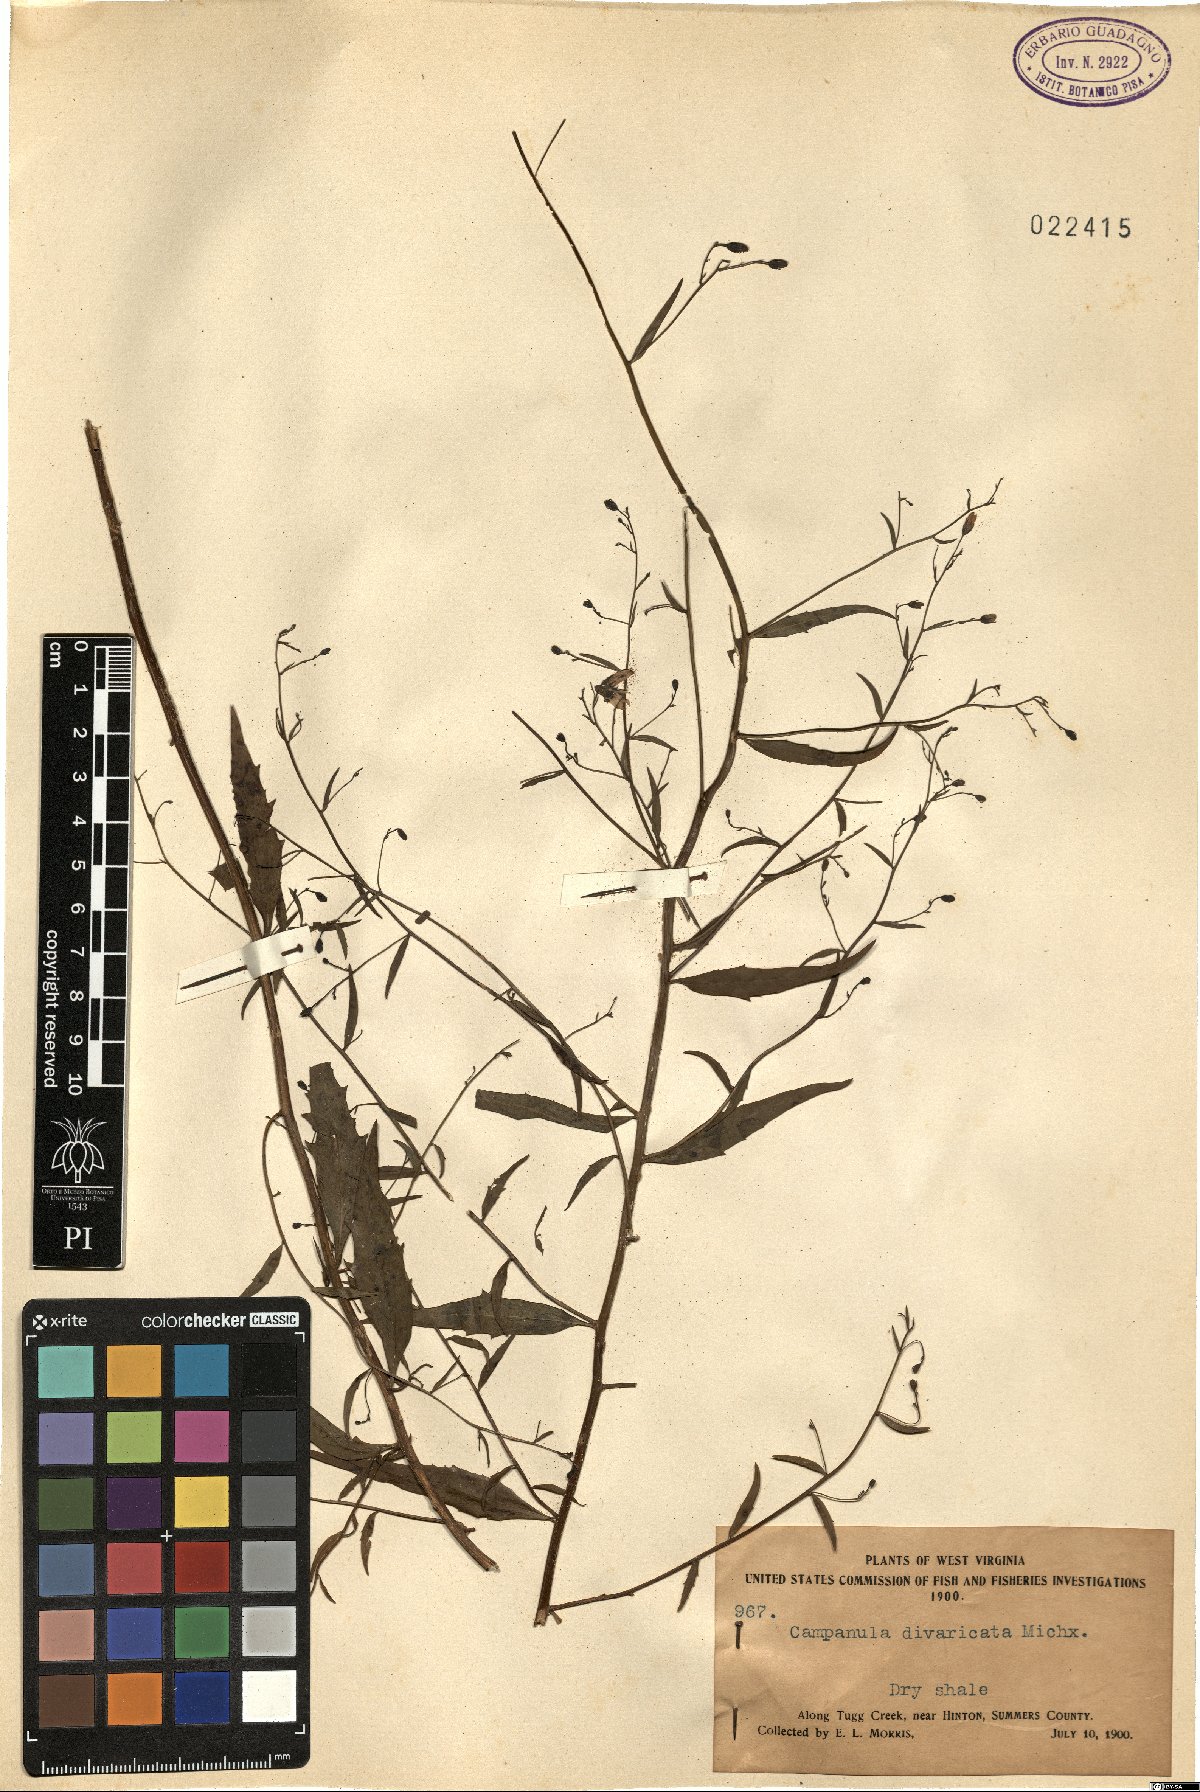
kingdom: Plantae
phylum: Tracheophyta
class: Magnoliopsida
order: Asterales
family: Campanulaceae
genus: Campanula
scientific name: Campanula divaricata
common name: Appalachian bellflower
